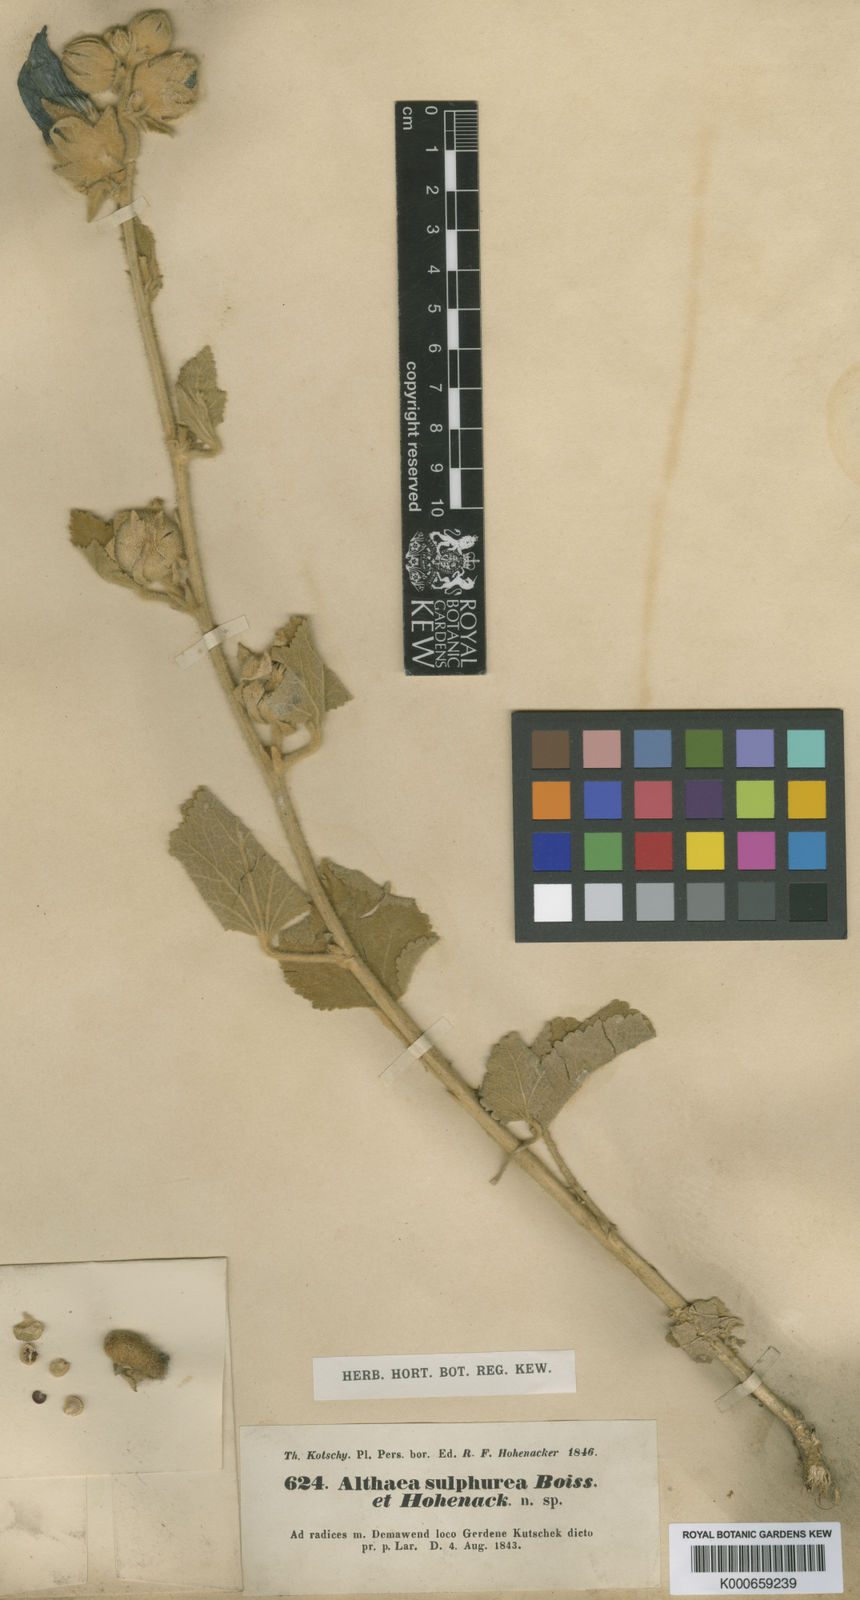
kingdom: Plantae
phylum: Tracheophyta
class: Magnoliopsida
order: Malvales
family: Malvaceae
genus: Alcea
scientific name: Alcea sulphurea
